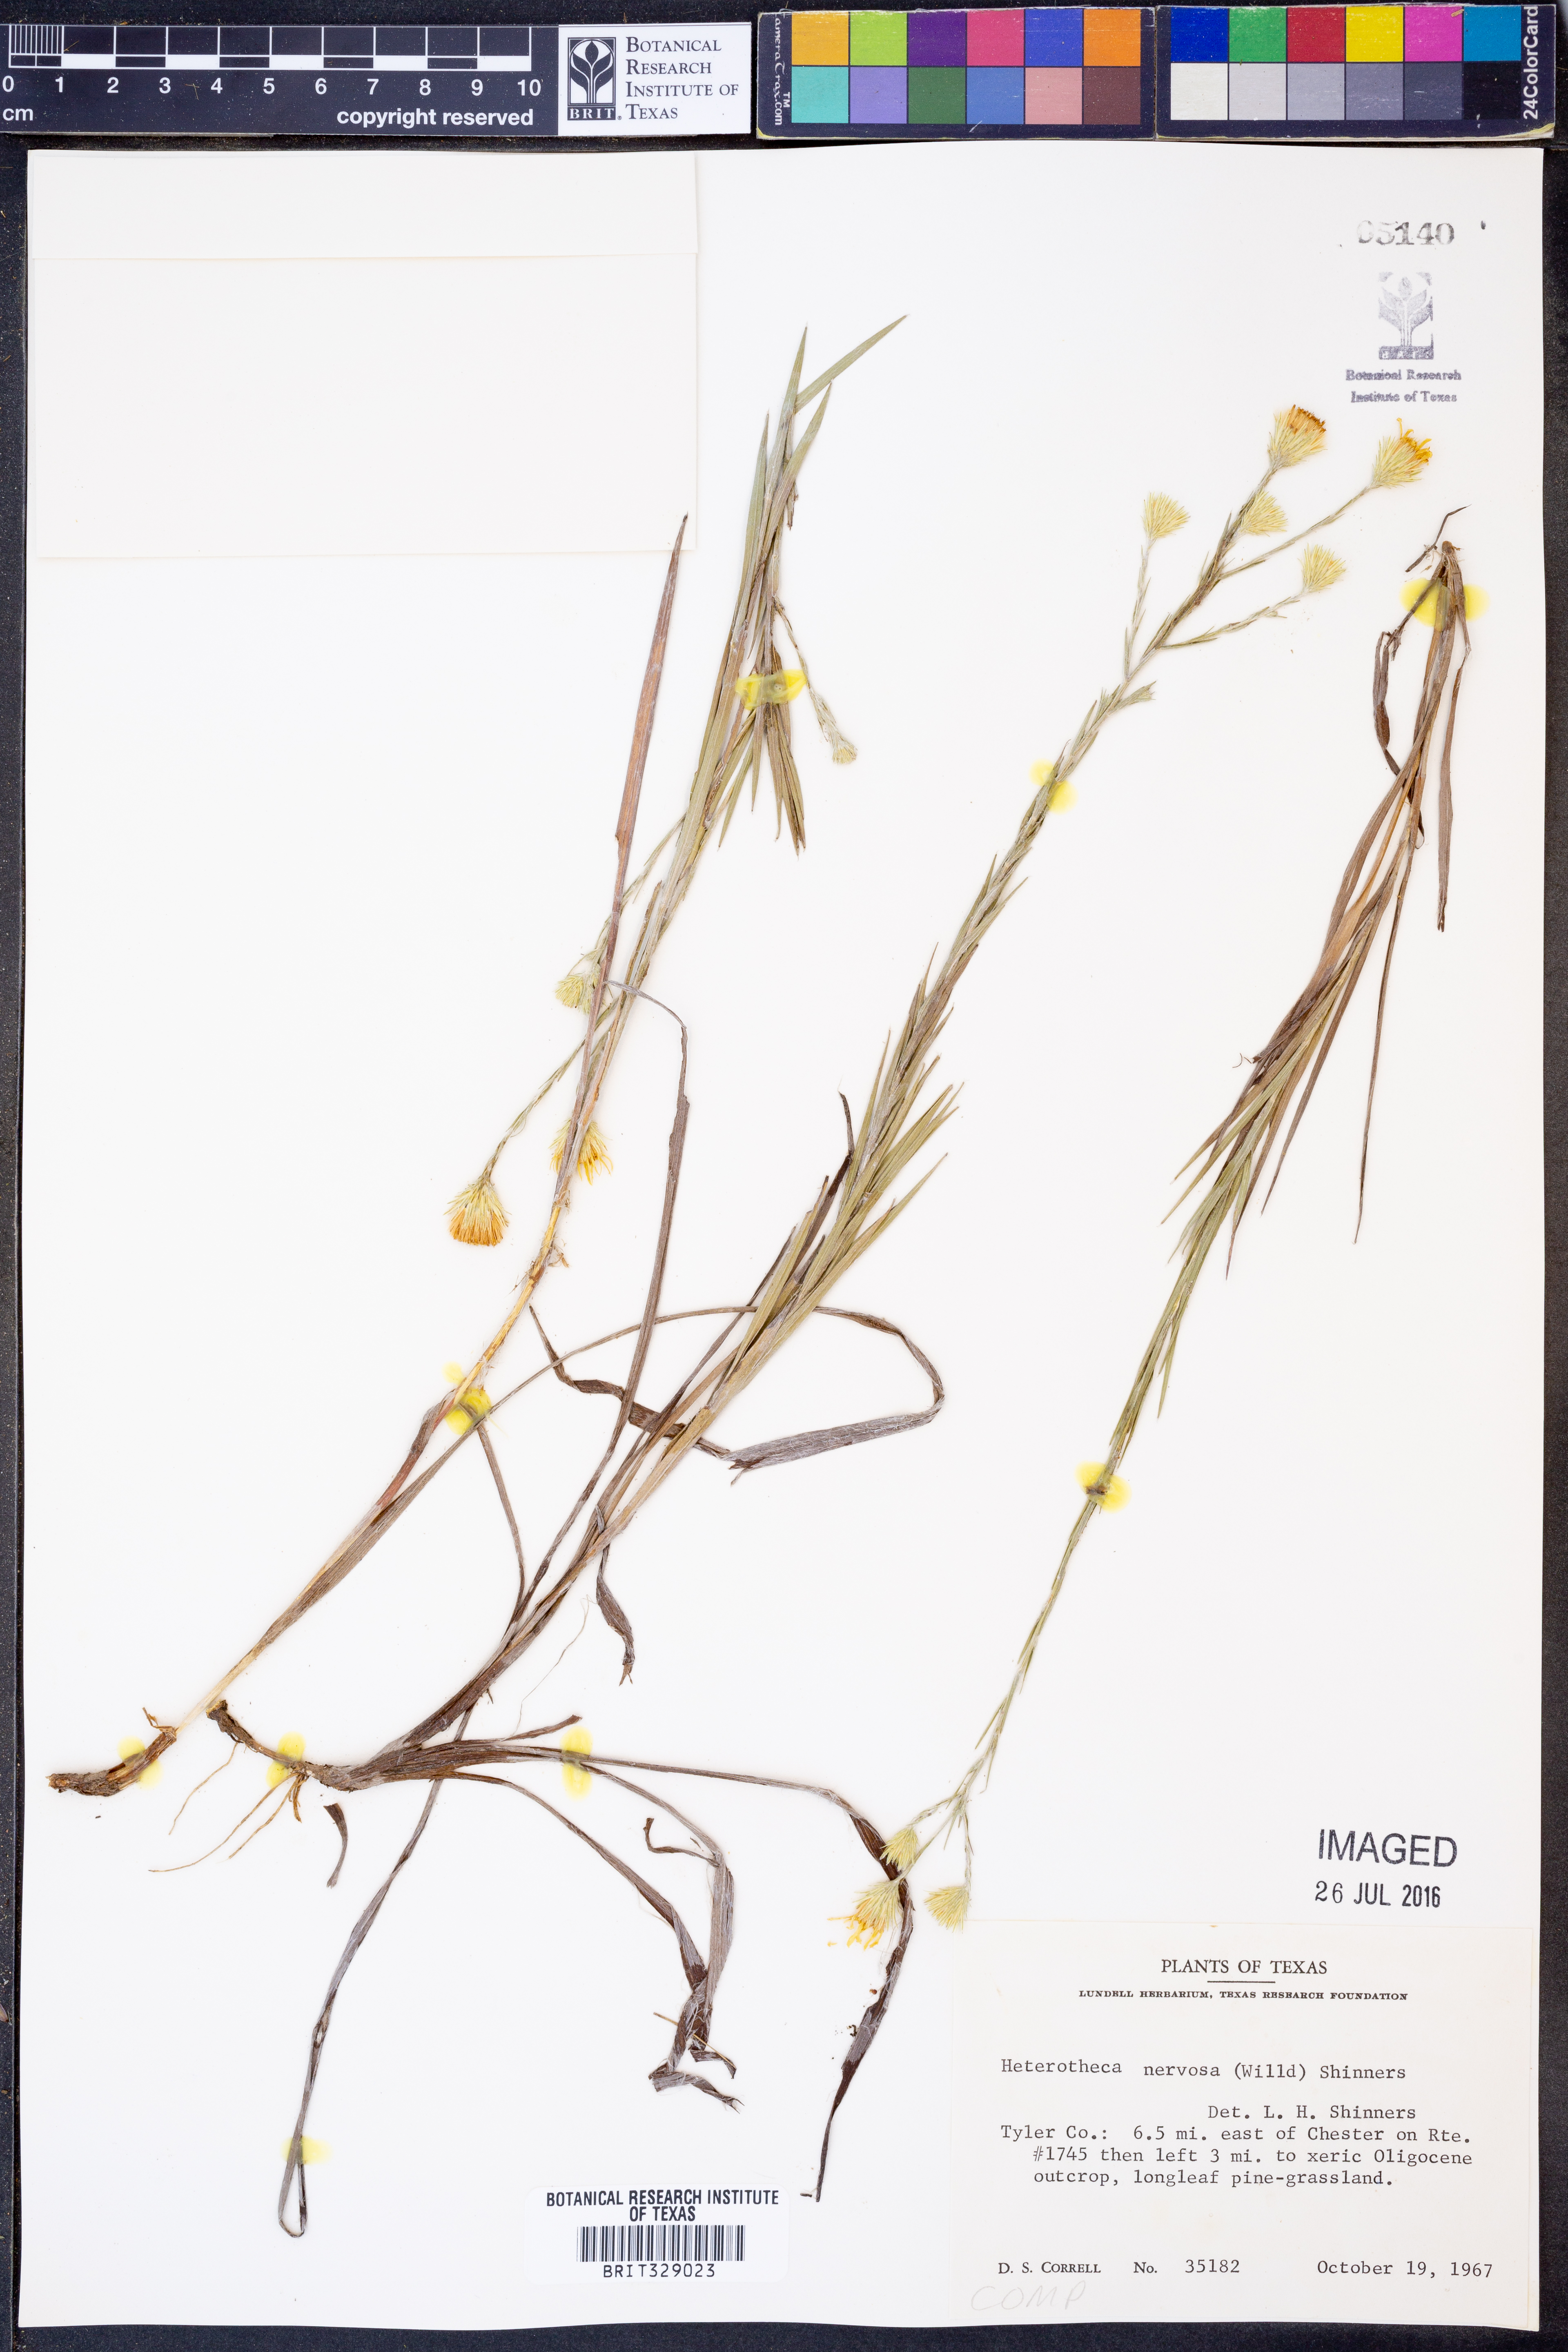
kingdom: Plantae
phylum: Tracheophyta
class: Magnoliopsida
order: Asterales
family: Asteraceae
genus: Pityopsis
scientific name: Pityopsis graminifolia
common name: Grass-leaf golden-aster
